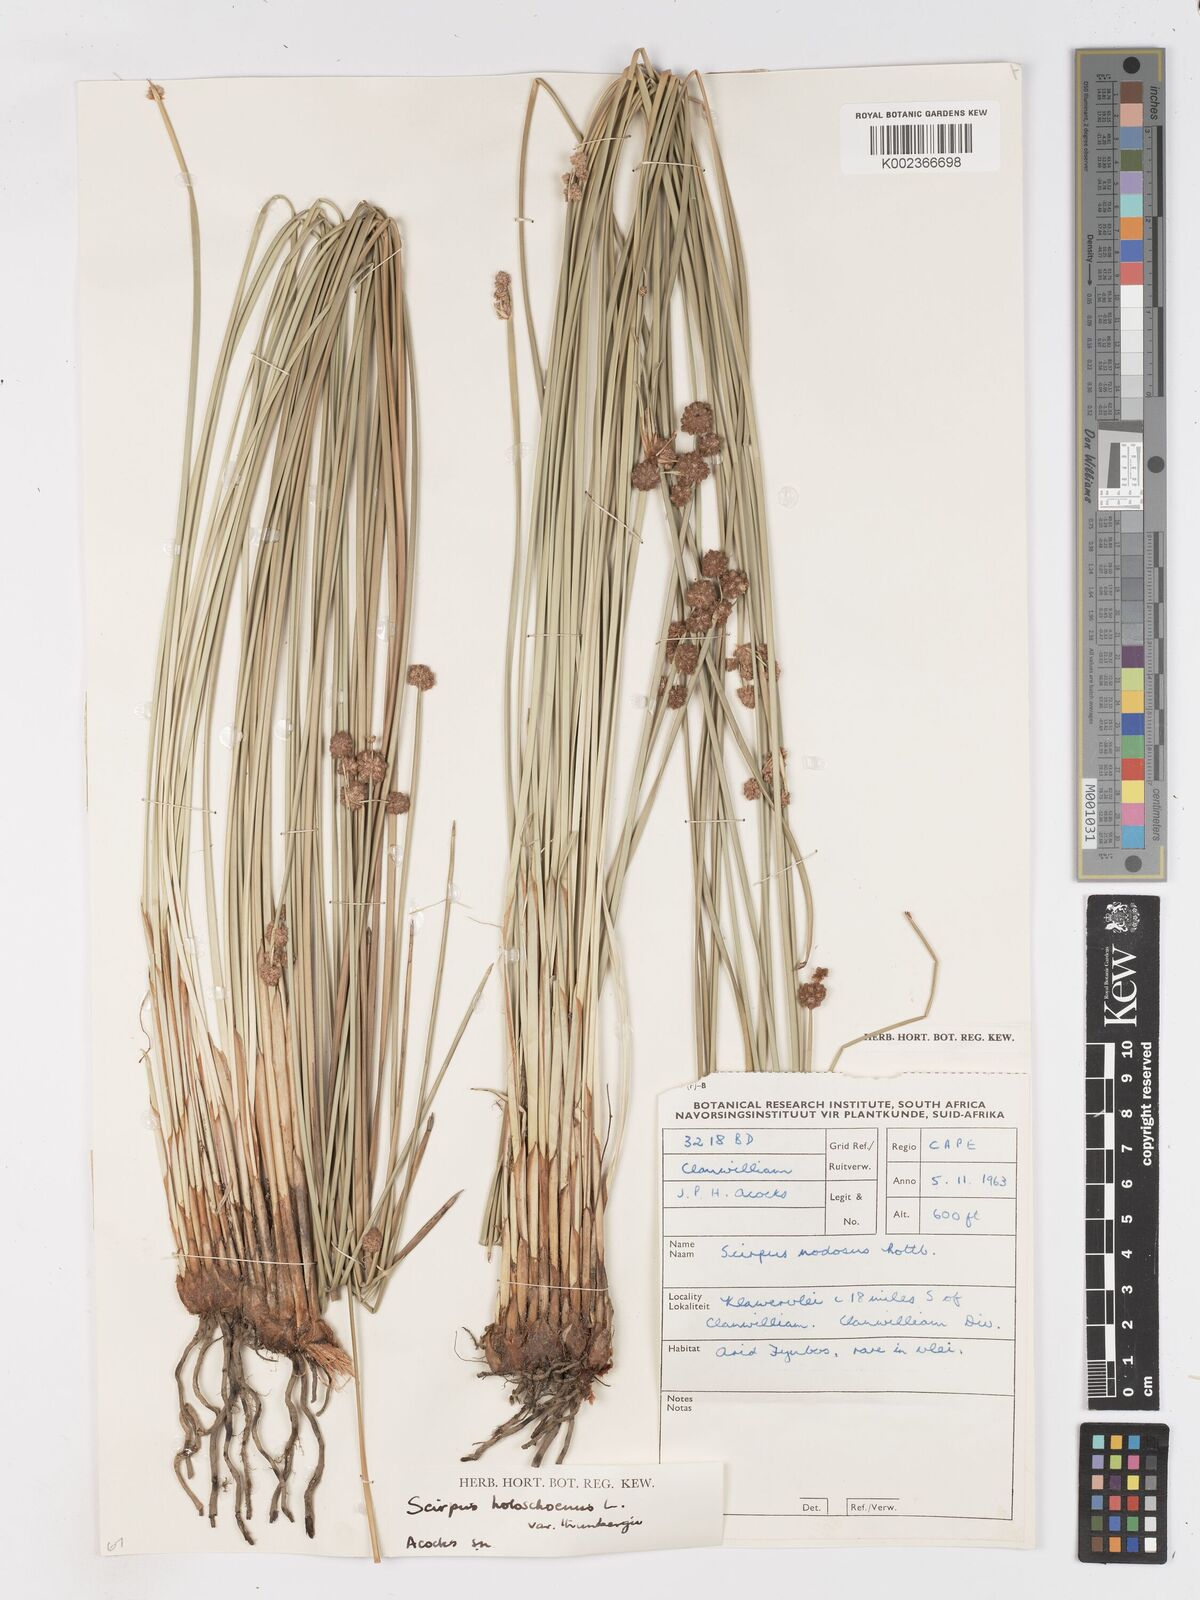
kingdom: Plantae
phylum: Tracheophyta
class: Liliopsida
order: Poales
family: Cyperaceae
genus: Scirpoides
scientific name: Scirpoides holoschoenus
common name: Round-headed club-rush
